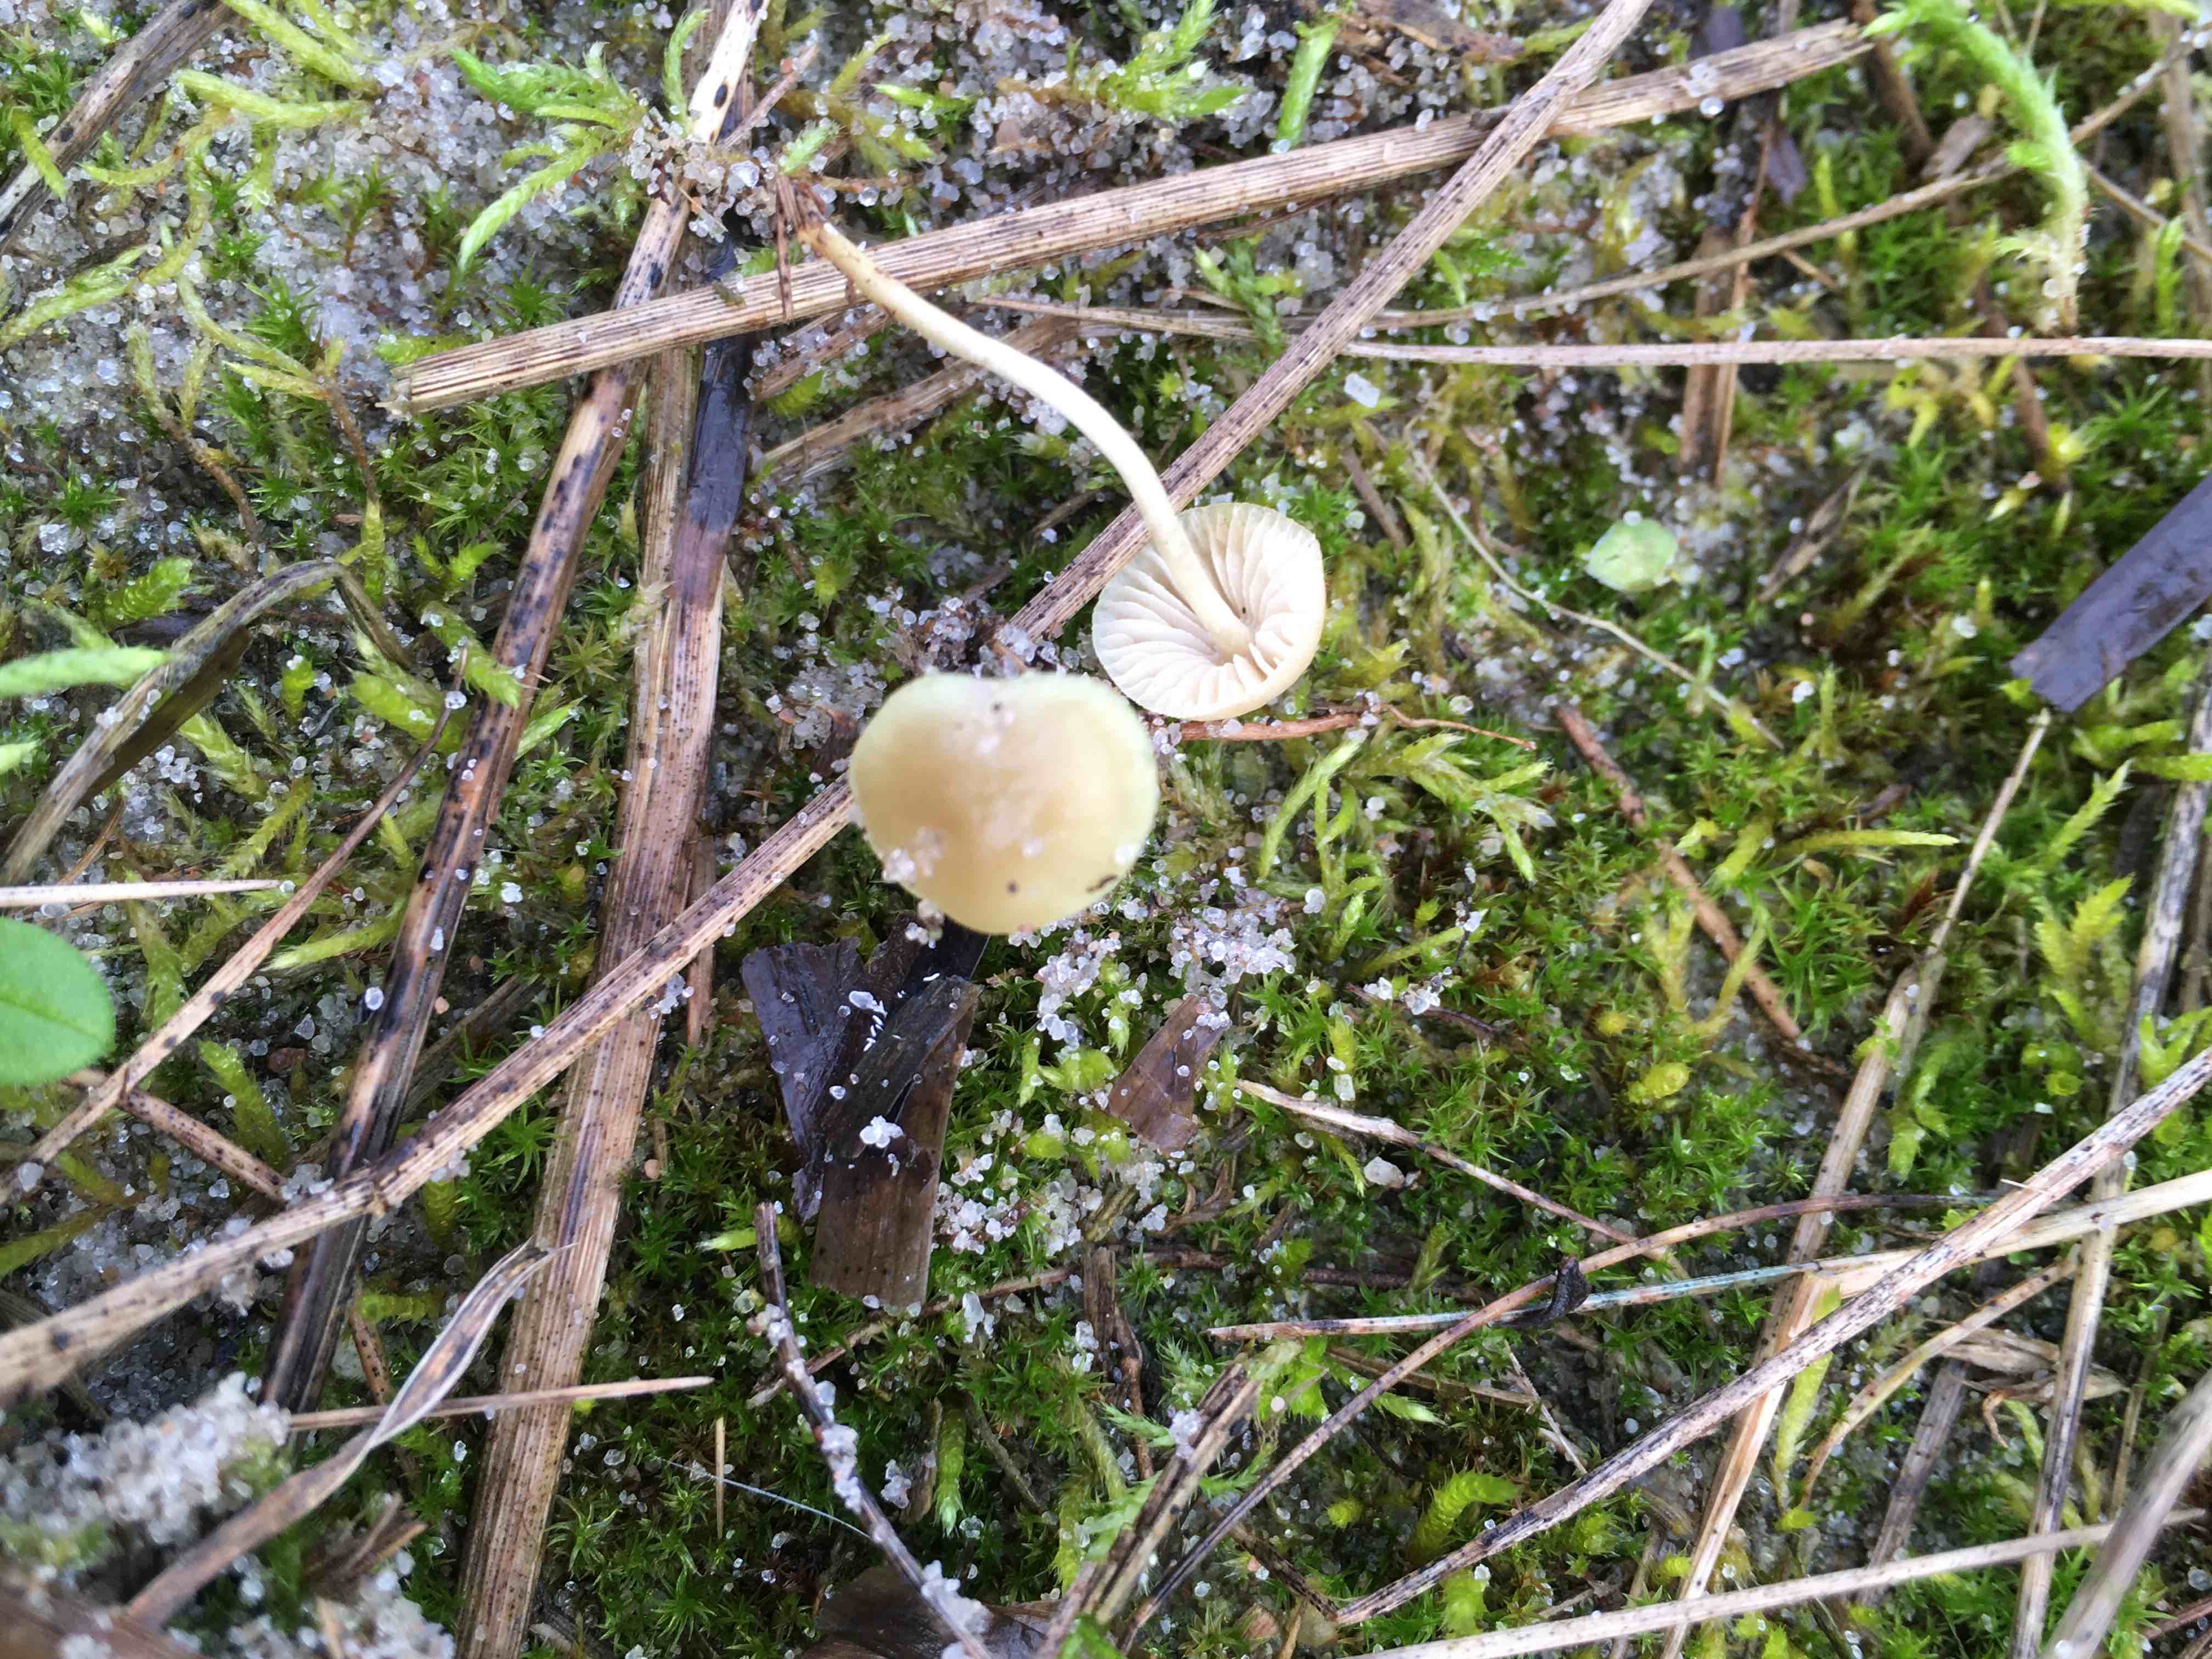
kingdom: Fungi
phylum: Basidiomycota
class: Agaricomycetes
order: Agaricales
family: Mycenaceae
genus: Mycena
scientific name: Mycena chlorantha
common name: klit-huesvamp
